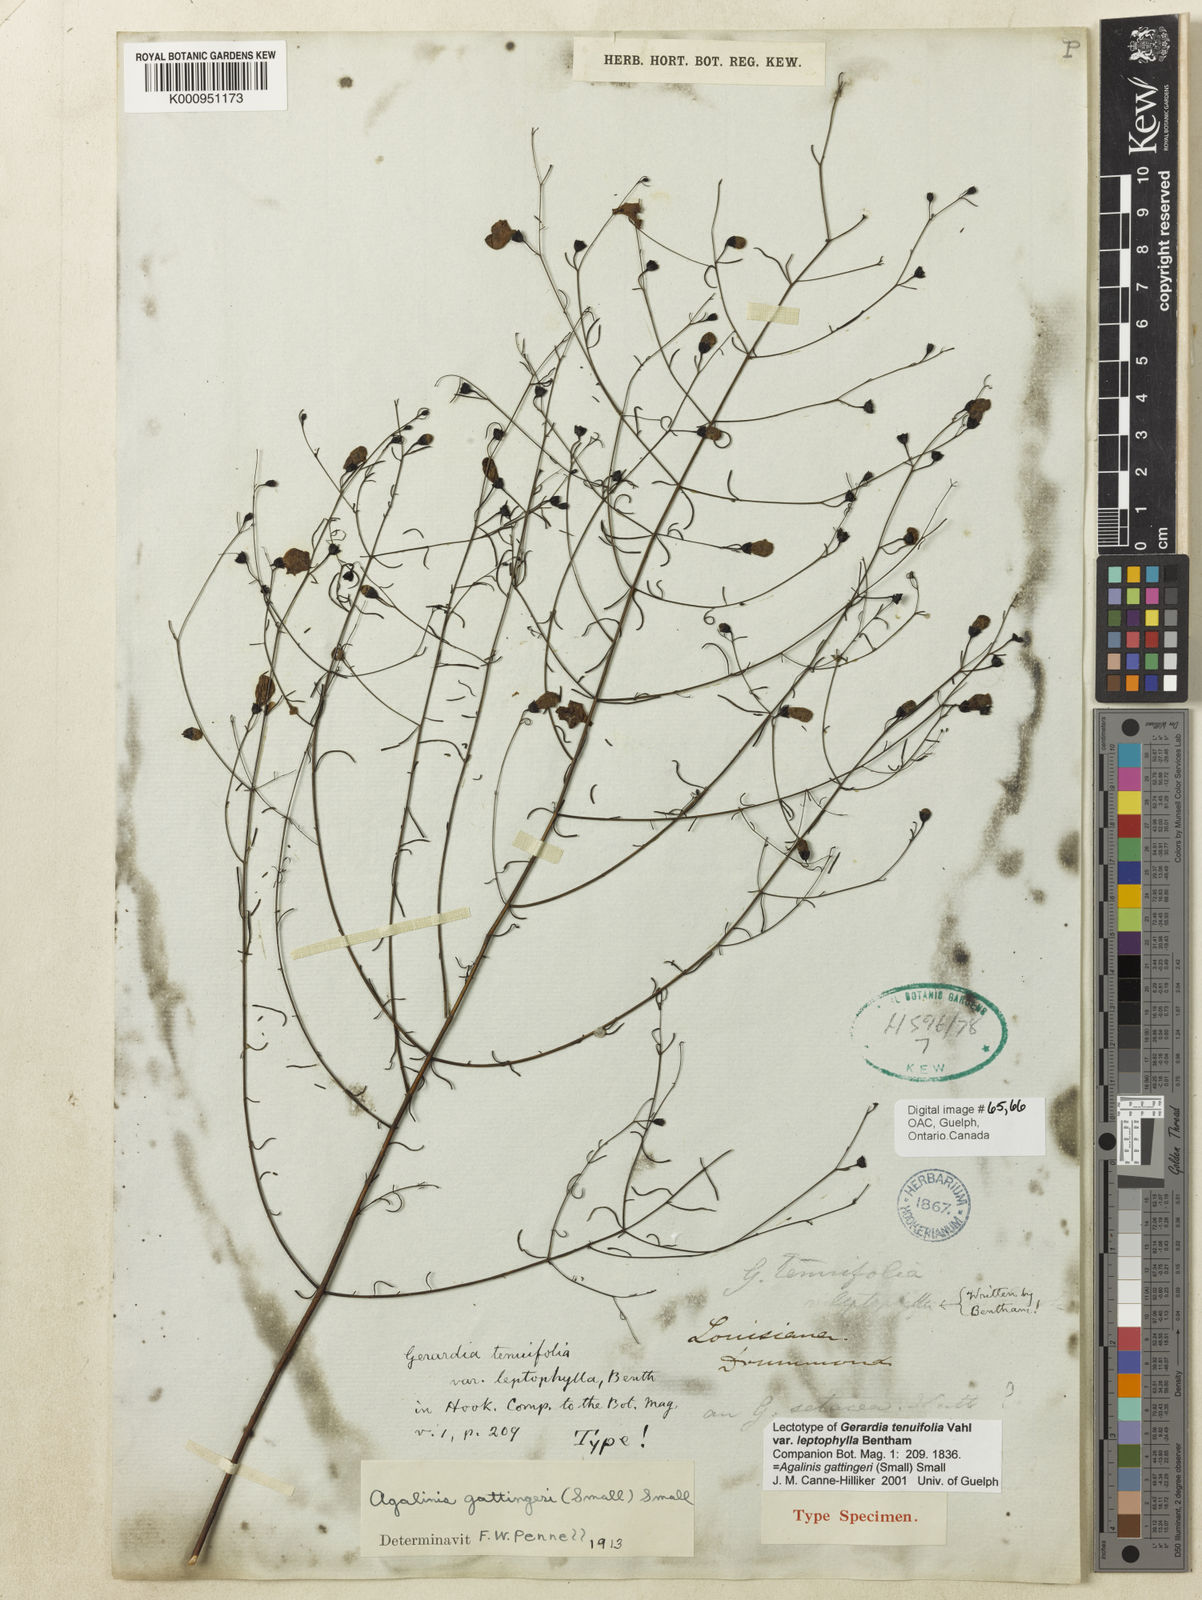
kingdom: Plantae
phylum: Tracheophyta
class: Magnoliopsida
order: Lamiales
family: Orobanchaceae
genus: Agalinis
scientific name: Agalinis
